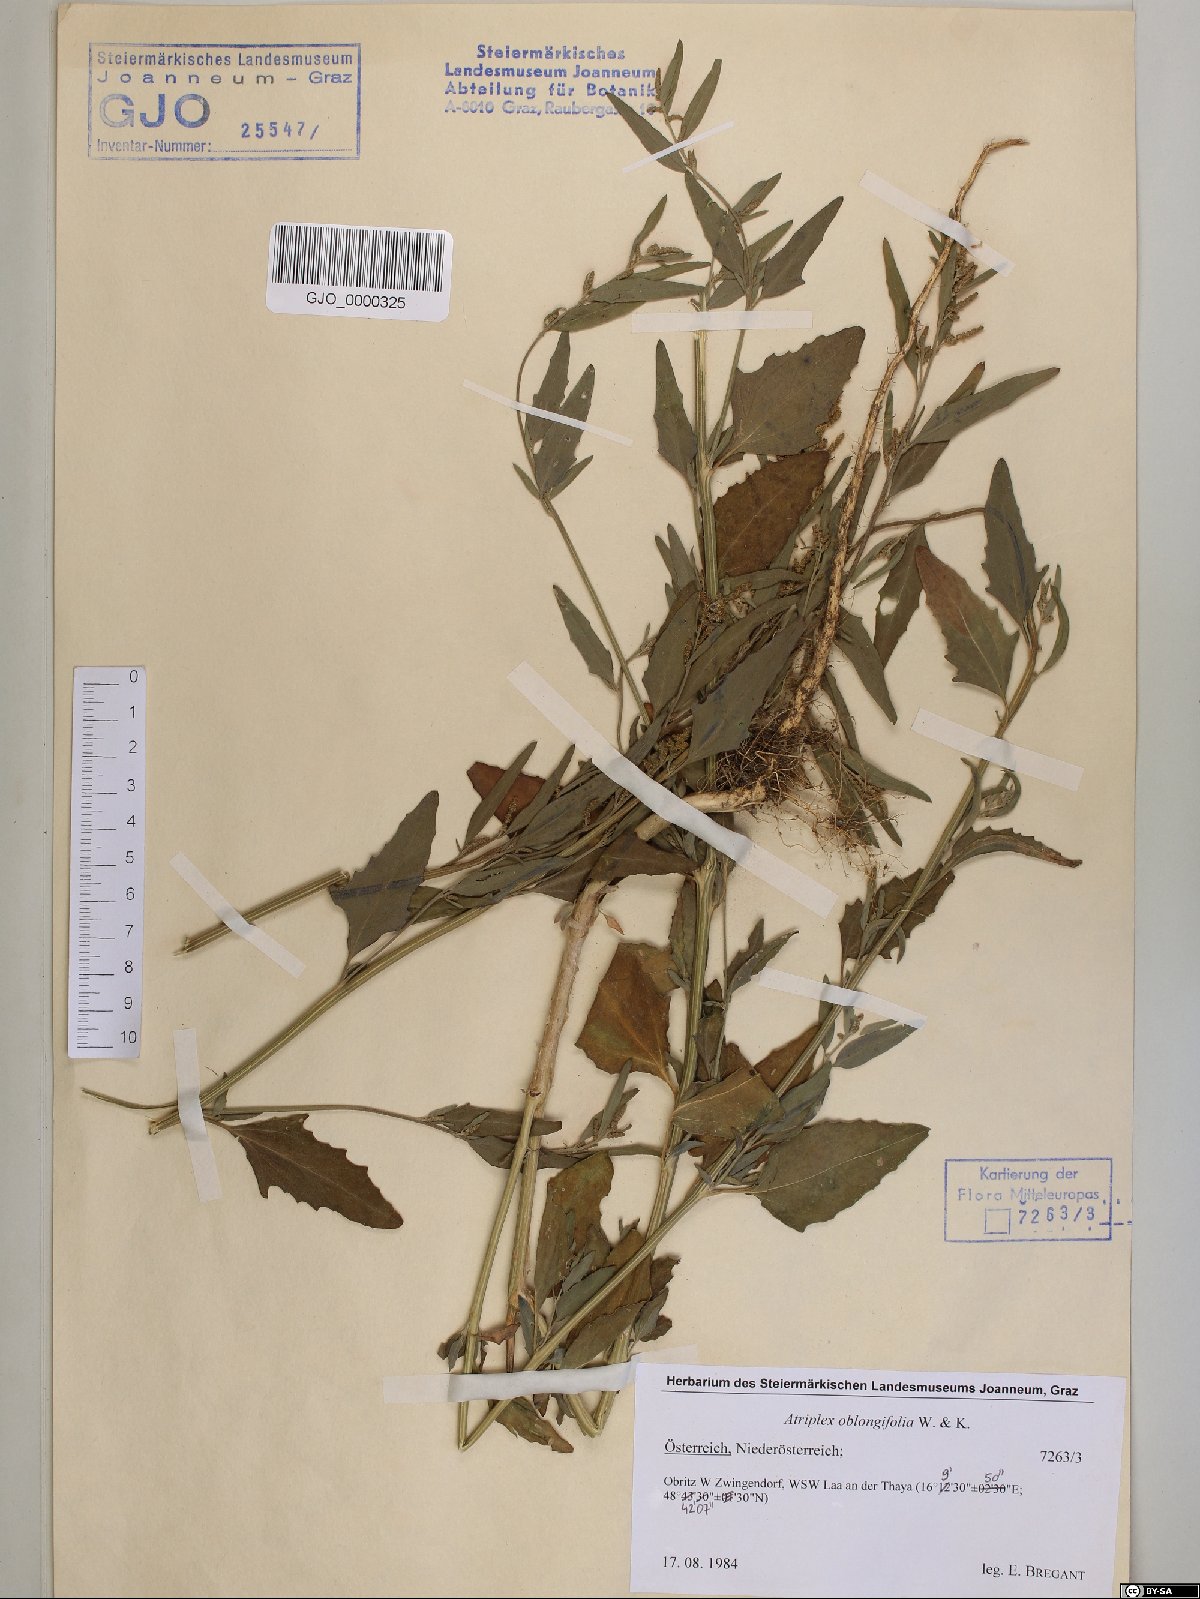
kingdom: Plantae
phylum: Tracheophyta
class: Magnoliopsida
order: Caryophyllales
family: Amaranthaceae
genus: Atriplex
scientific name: Atriplex oblongifolia
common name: Oblongleaf orache
